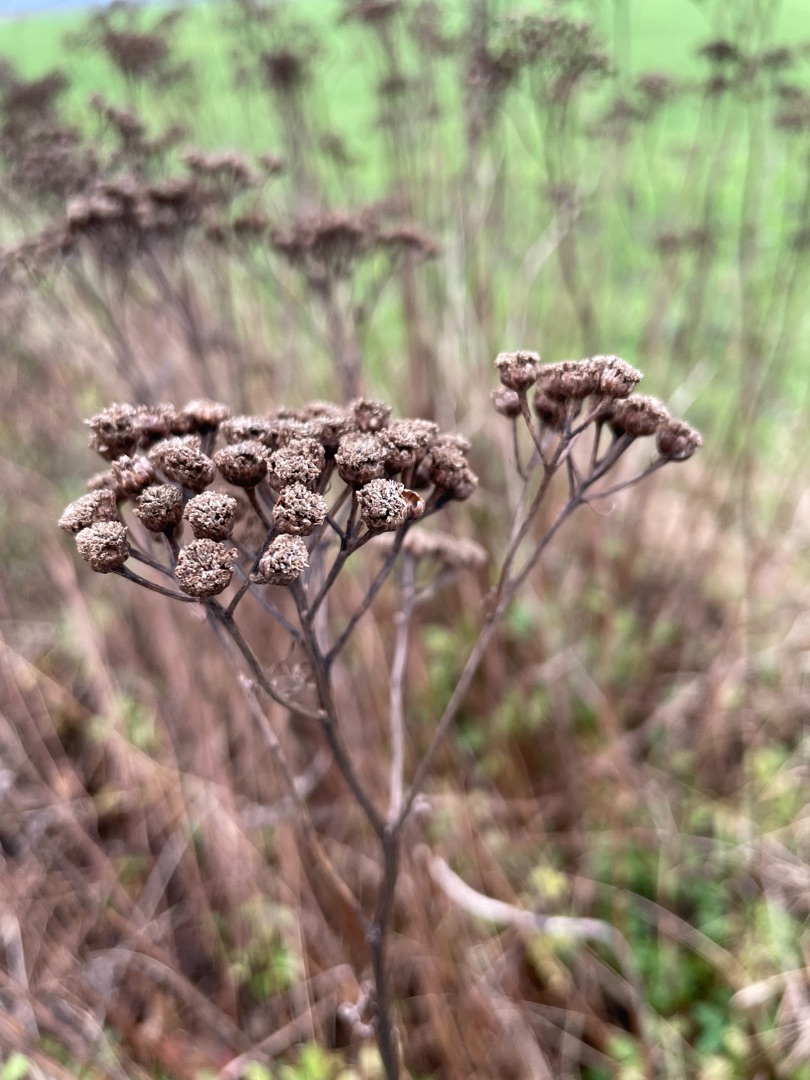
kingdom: Plantae
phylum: Tracheophyta
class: Magnoliopsida
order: Asterales
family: Asteraceae
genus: Tanacetum
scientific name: Tanacetum vulgare
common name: Rejnfan
